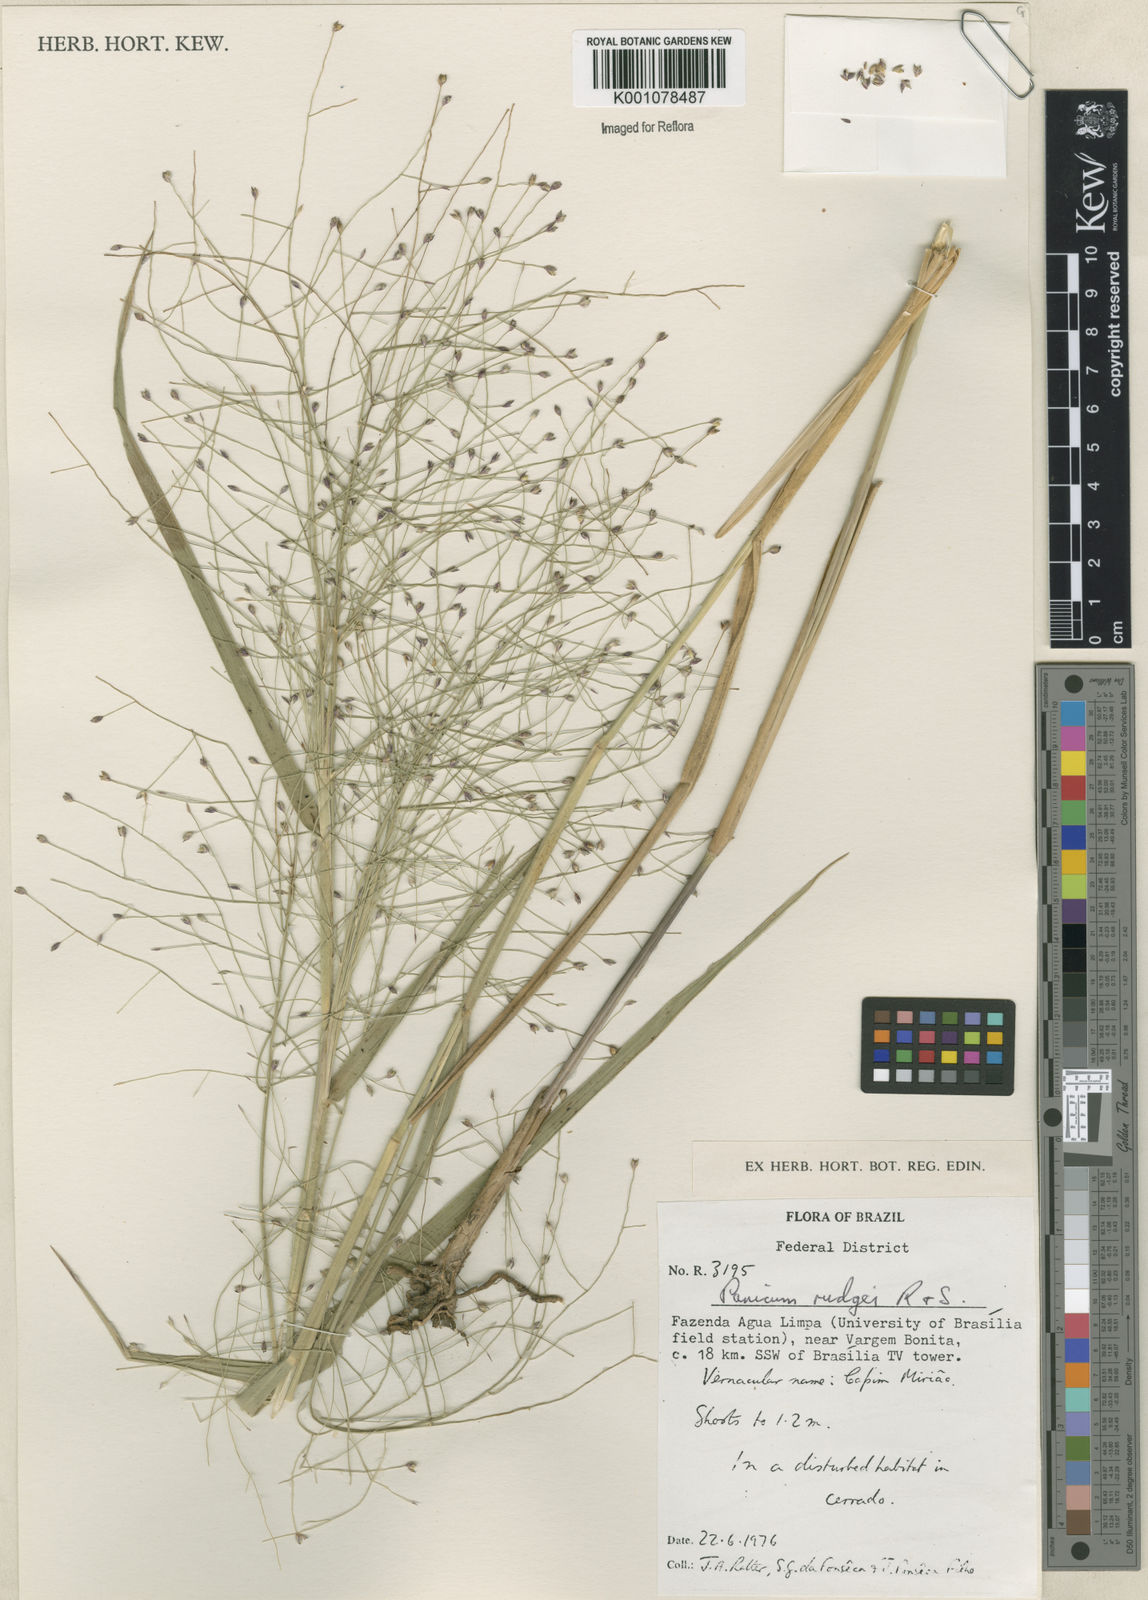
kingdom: Plantae
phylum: Tracheophyta
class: Liliopsida
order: Poales
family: Poaceae
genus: Panicum
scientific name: Panicum rudgei
